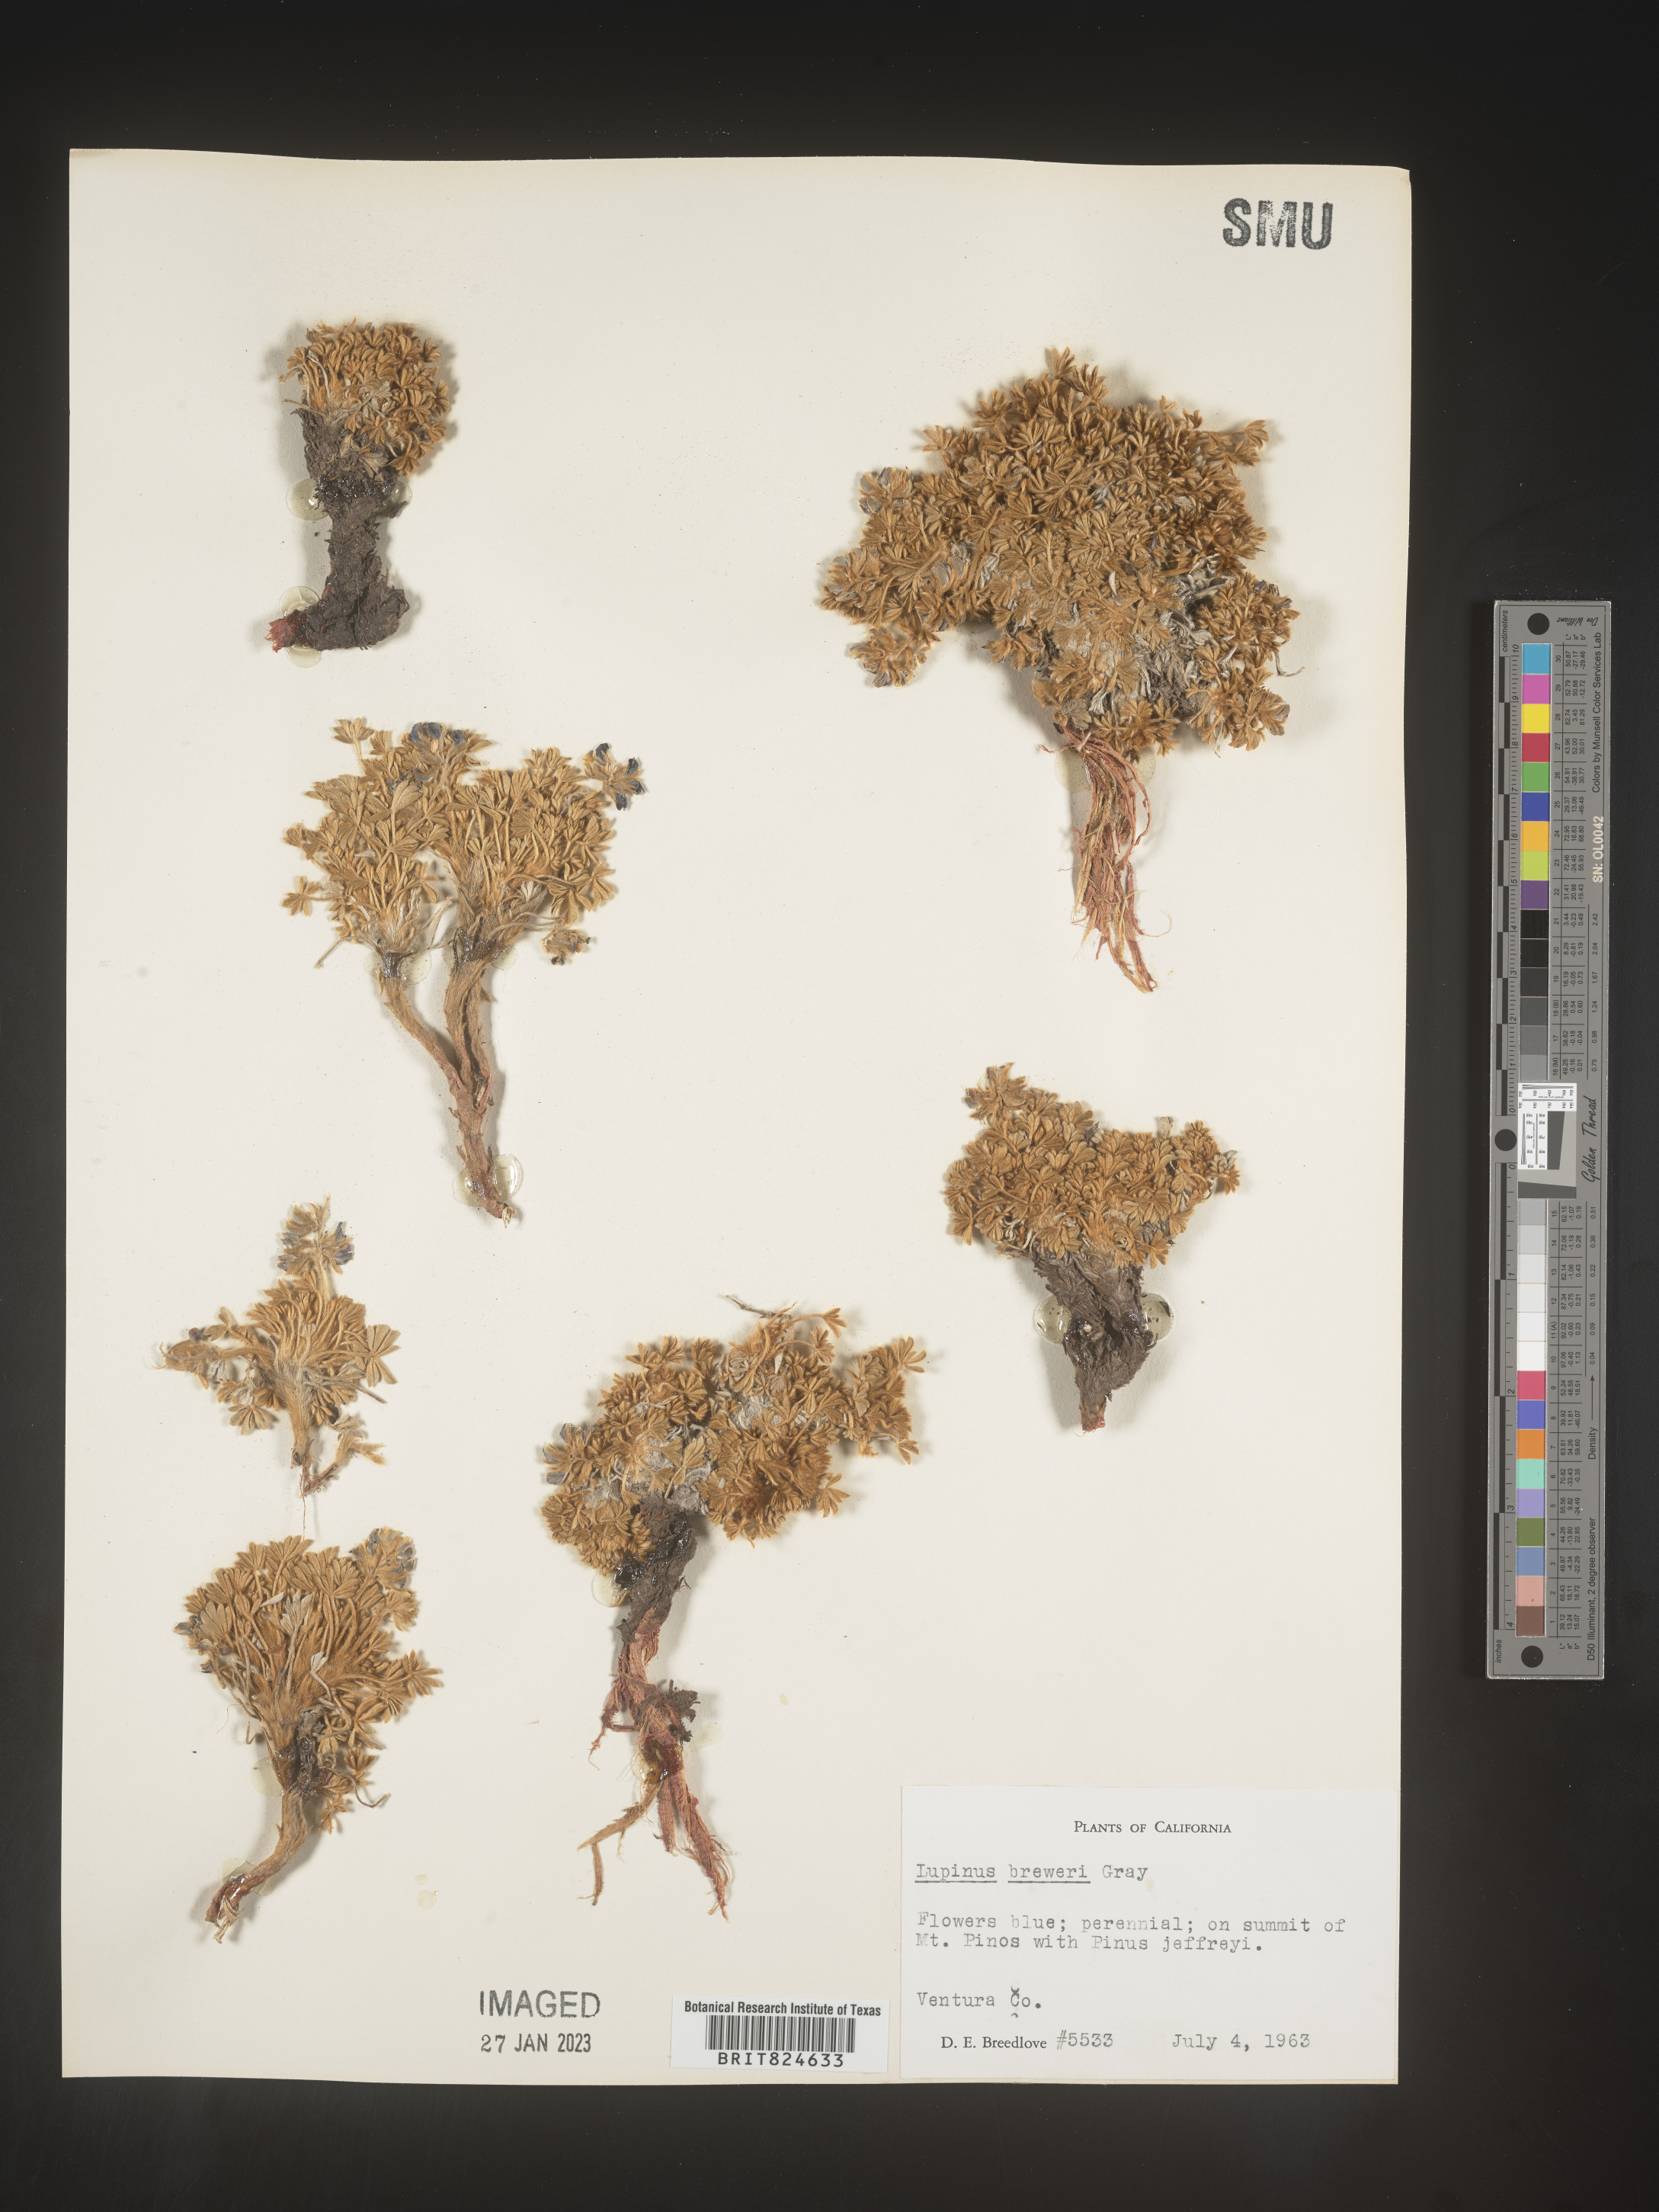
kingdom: Plantae
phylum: Tracheophyta
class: Magnoliopsida
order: Fabales
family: Fabaceae
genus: Lupinus
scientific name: Lupinus
